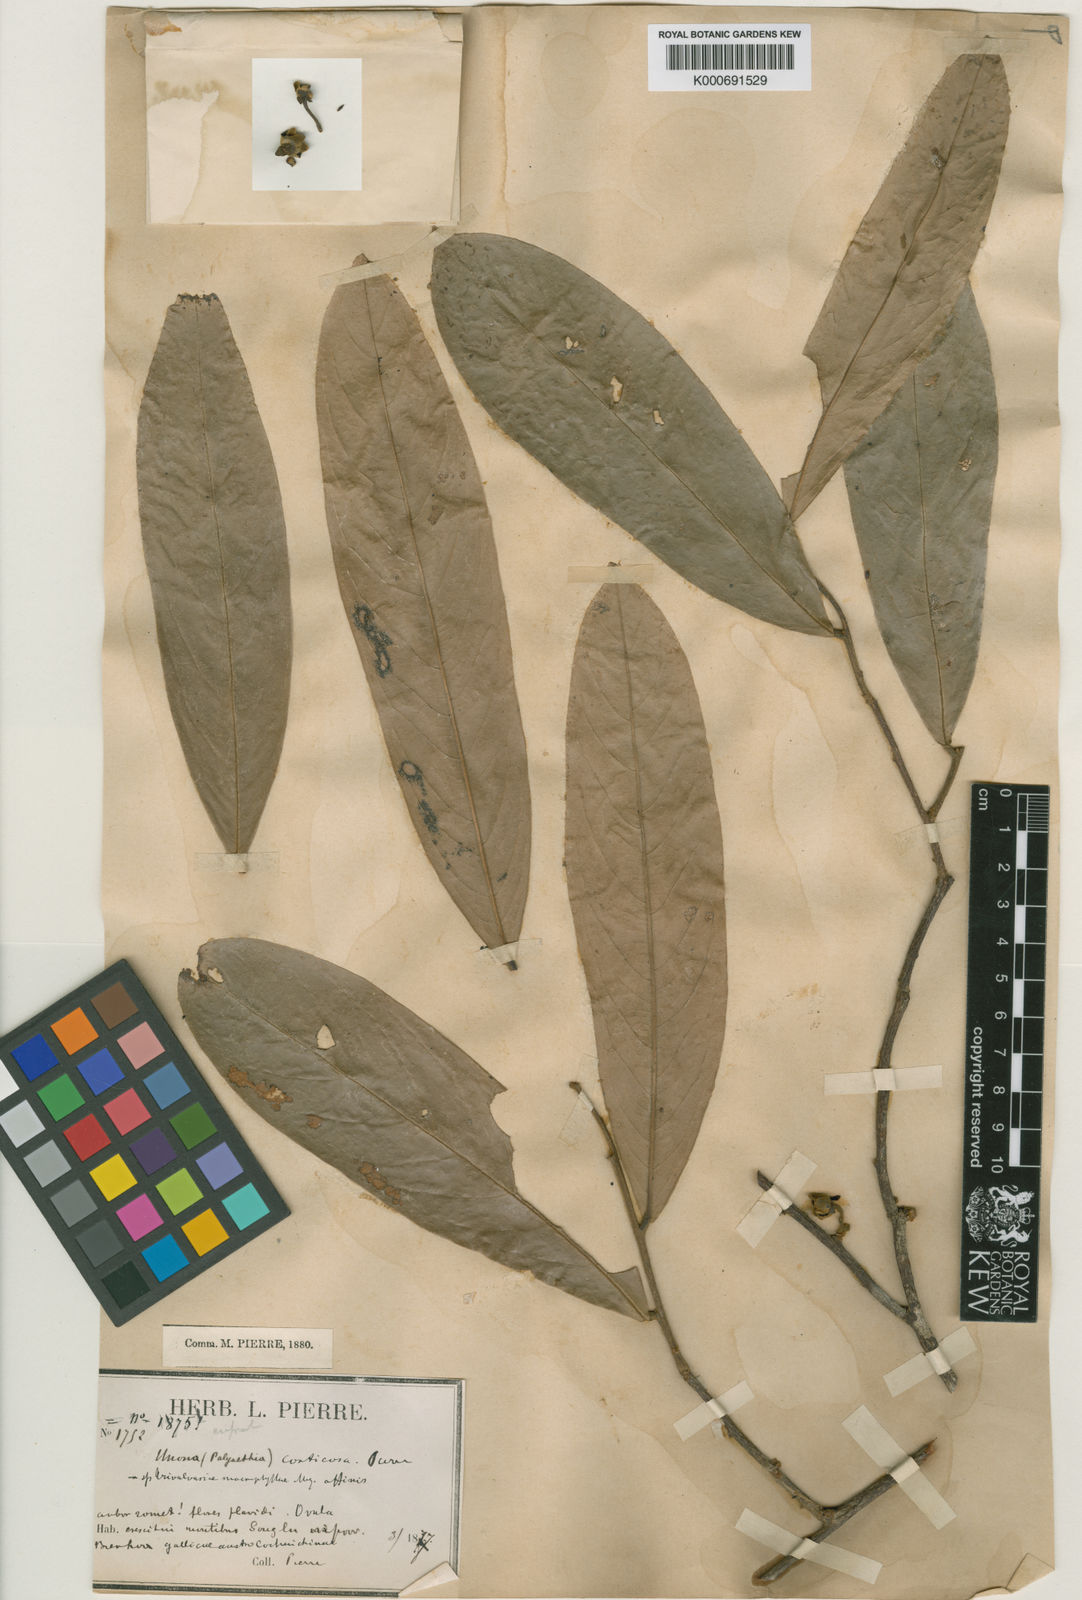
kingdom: Plantae
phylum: Tracheophyta
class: Magnoliopsida
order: Magnoliales
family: Annonaceae
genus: Polyalthia
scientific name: Polyalthia corticosa
